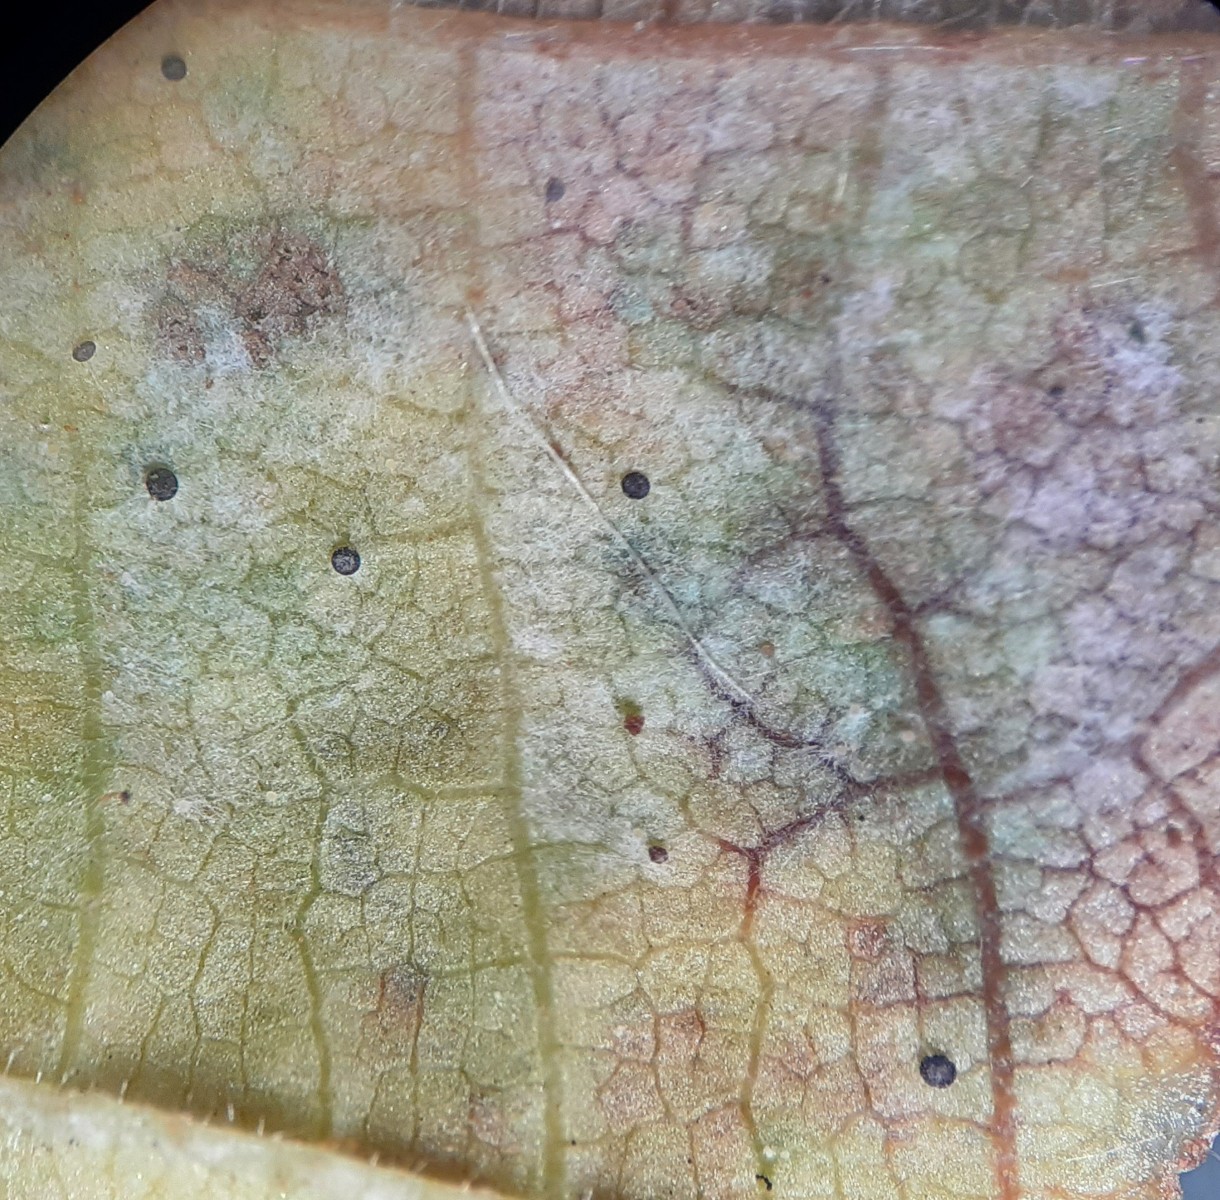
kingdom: Fungi
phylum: Ascomycota
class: Leotiomycetes
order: Helotiales
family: Erysiphaceae
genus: Phyllactinia
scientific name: Phyllactinia guttata
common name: hassel-meldug
